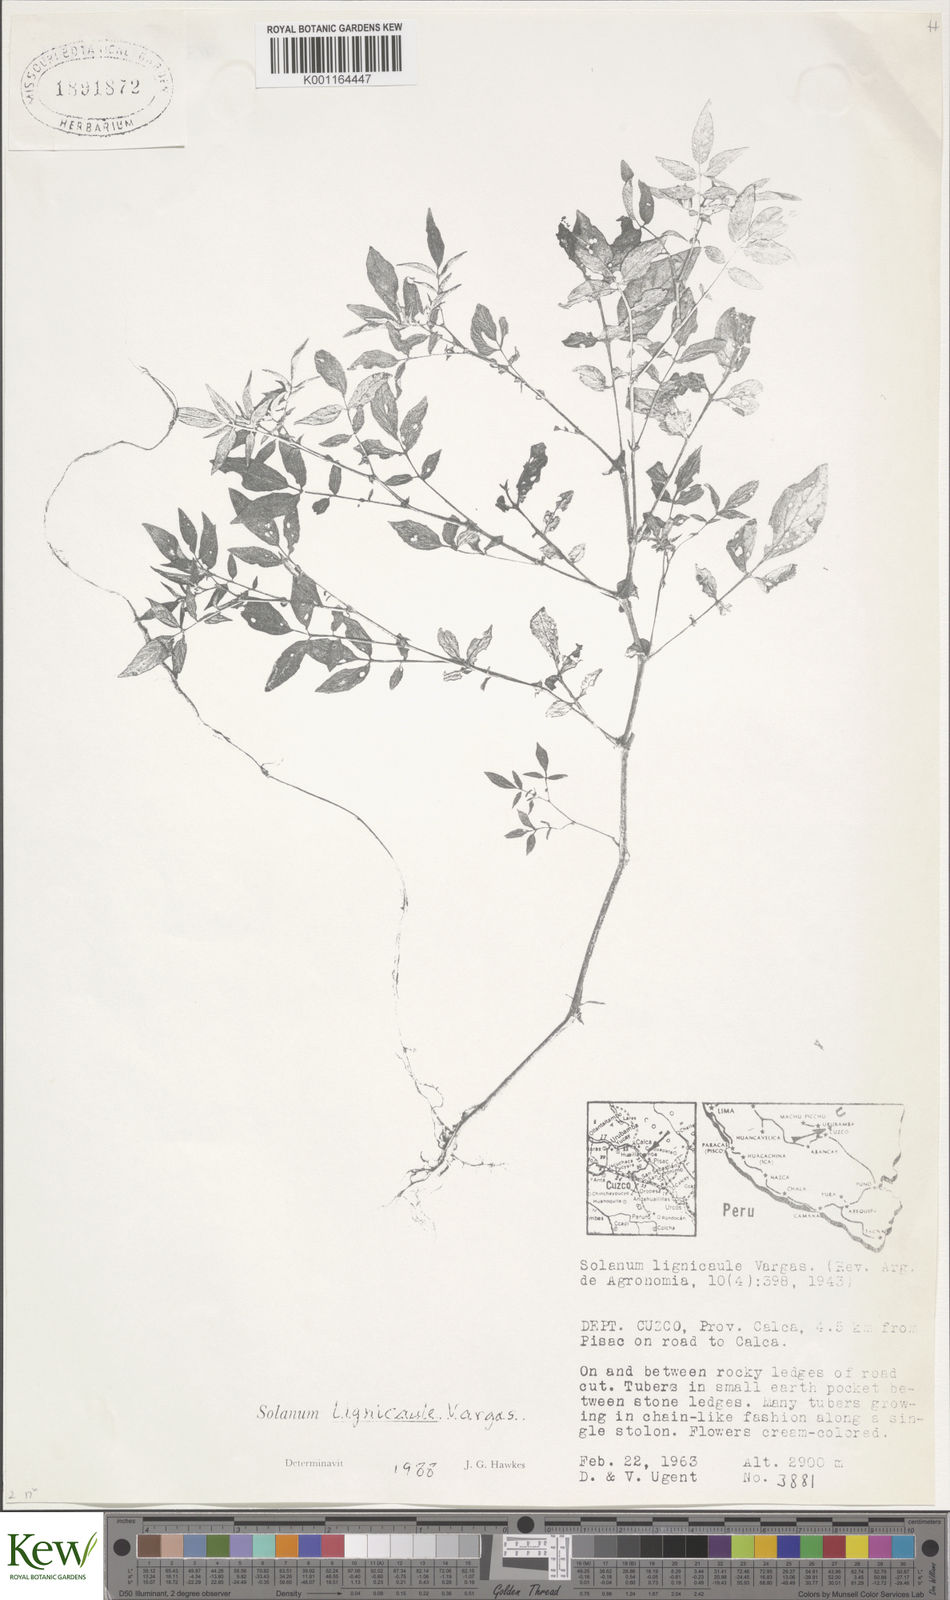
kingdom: Plantae
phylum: Tracheophyta
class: Magnoliopsida
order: Solanales
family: Solanaceae
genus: Solanum
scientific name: Solanum lignicaule
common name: Fox potato
